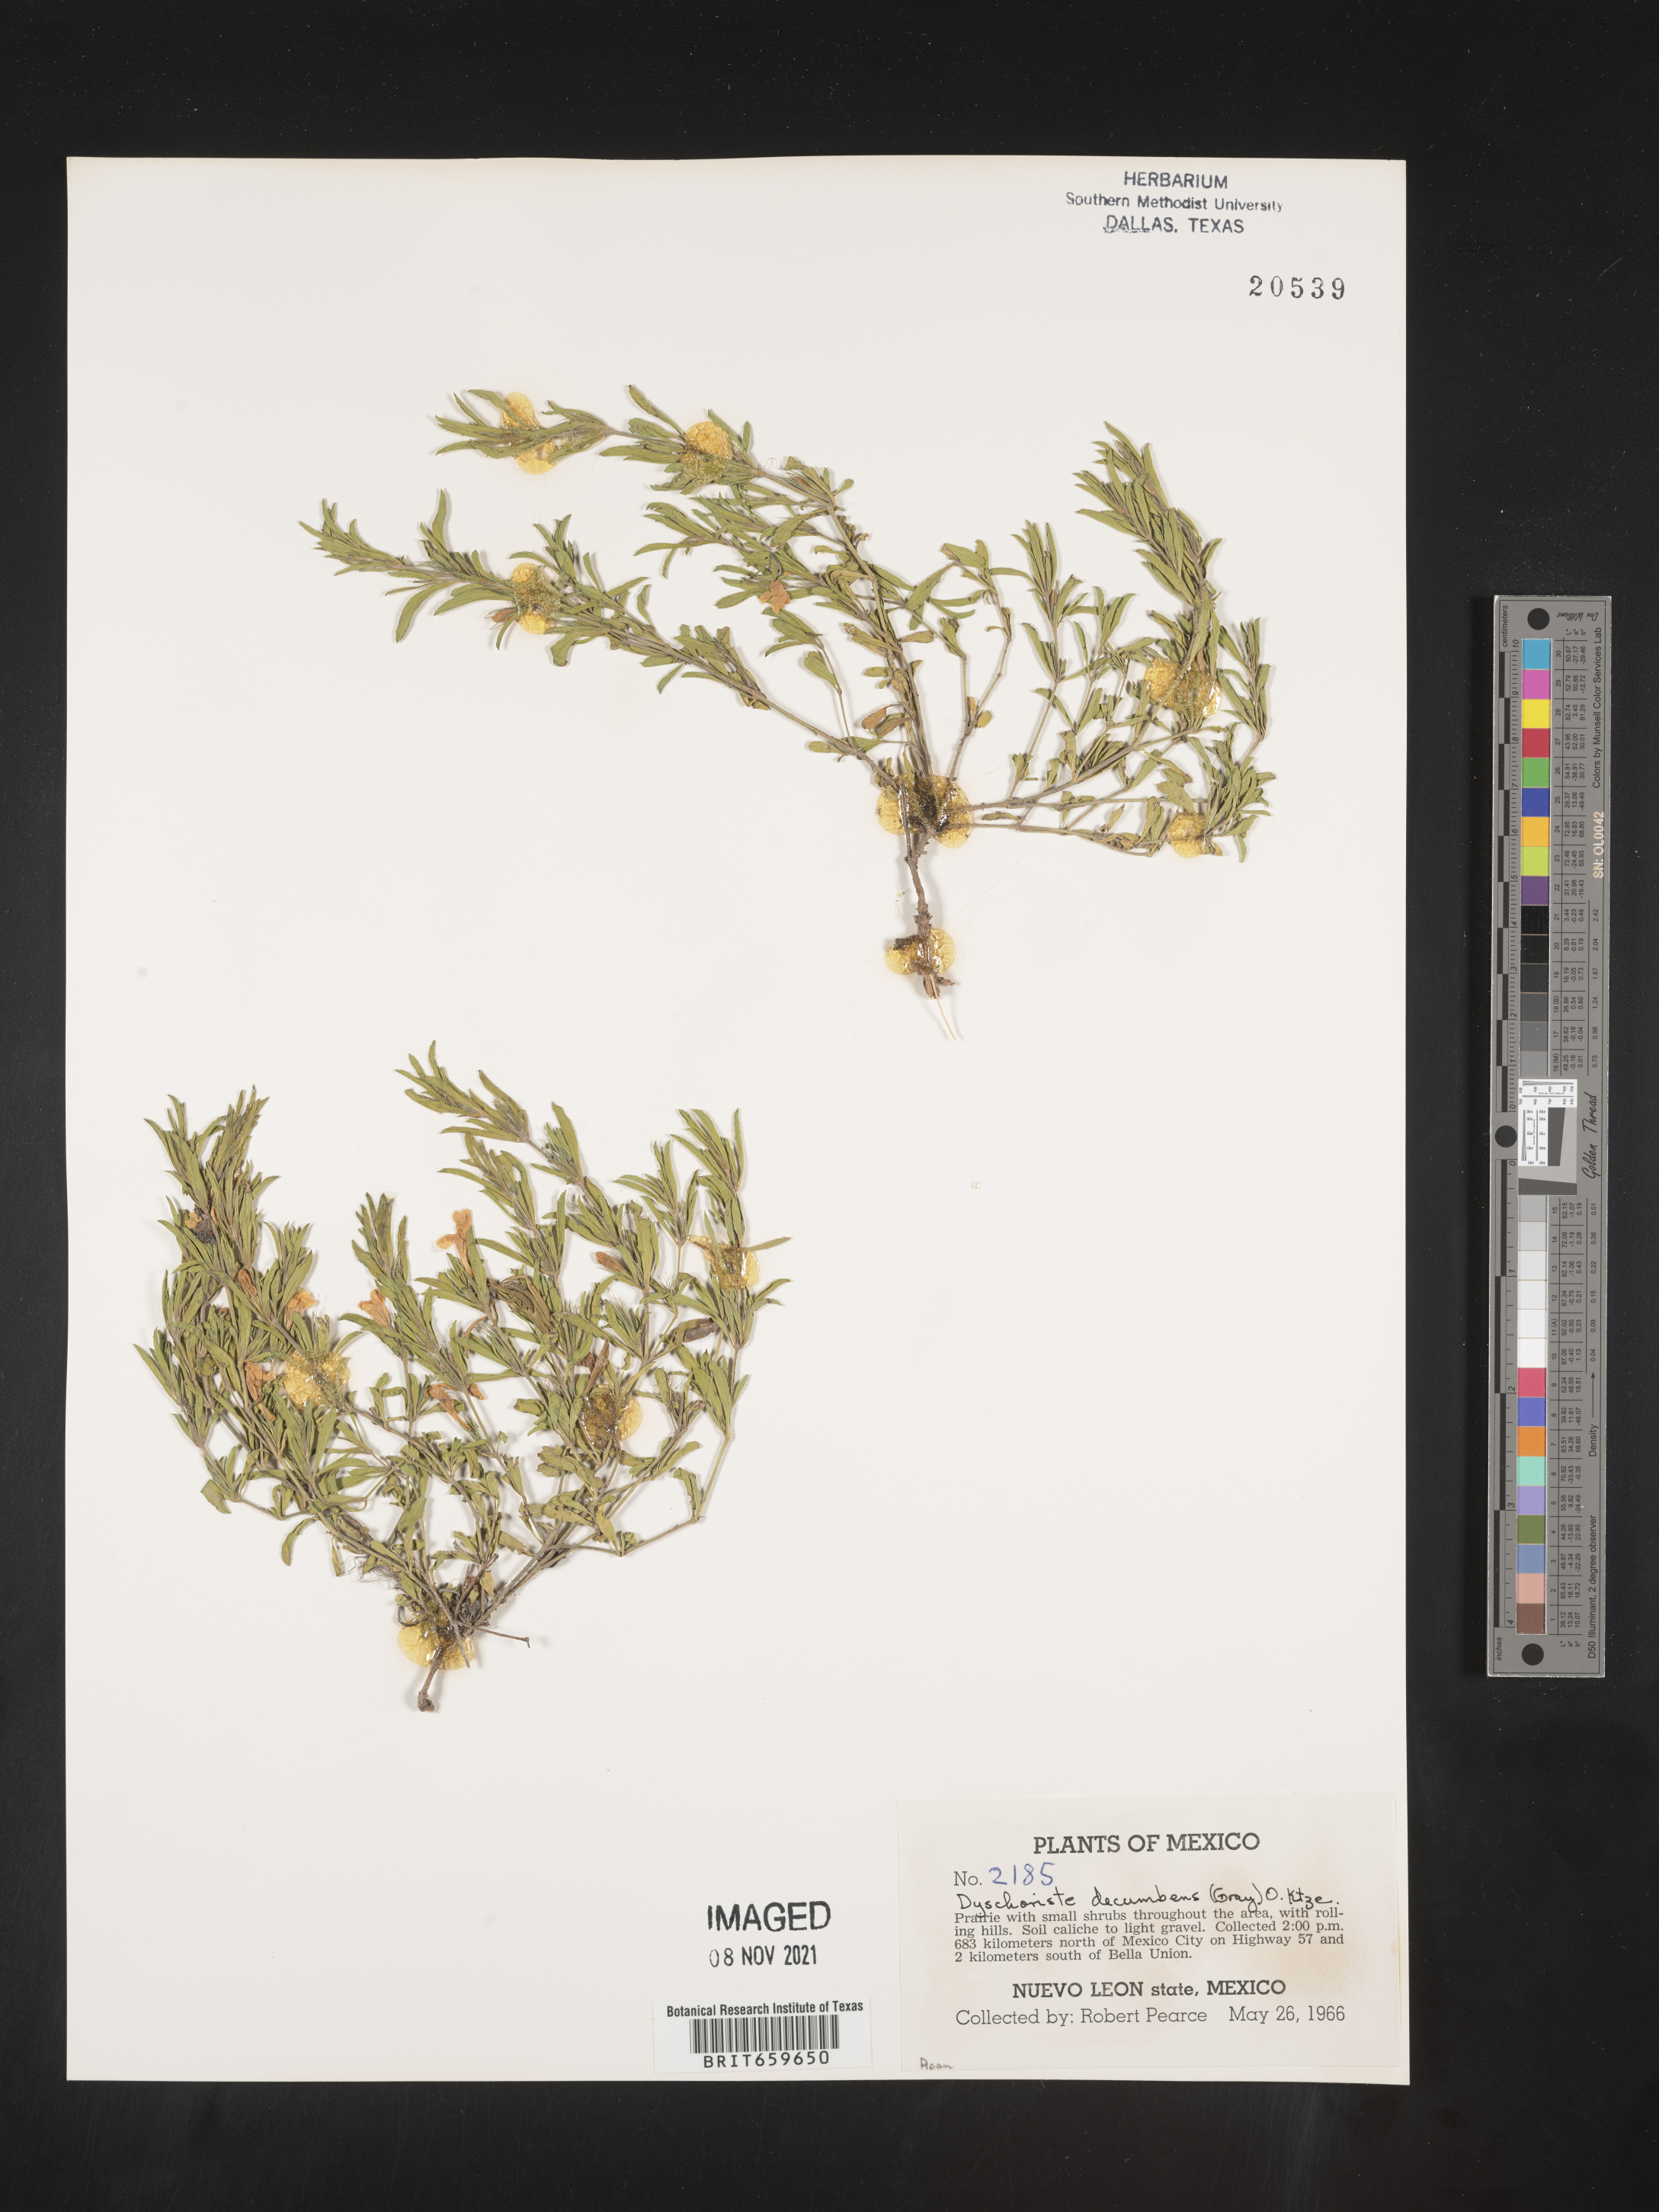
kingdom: Plantae
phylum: Tracheophyta
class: Magnoliopsida
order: Lamiales
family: Acanthaceae
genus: Dyschoriste
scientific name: Dyschoriste
